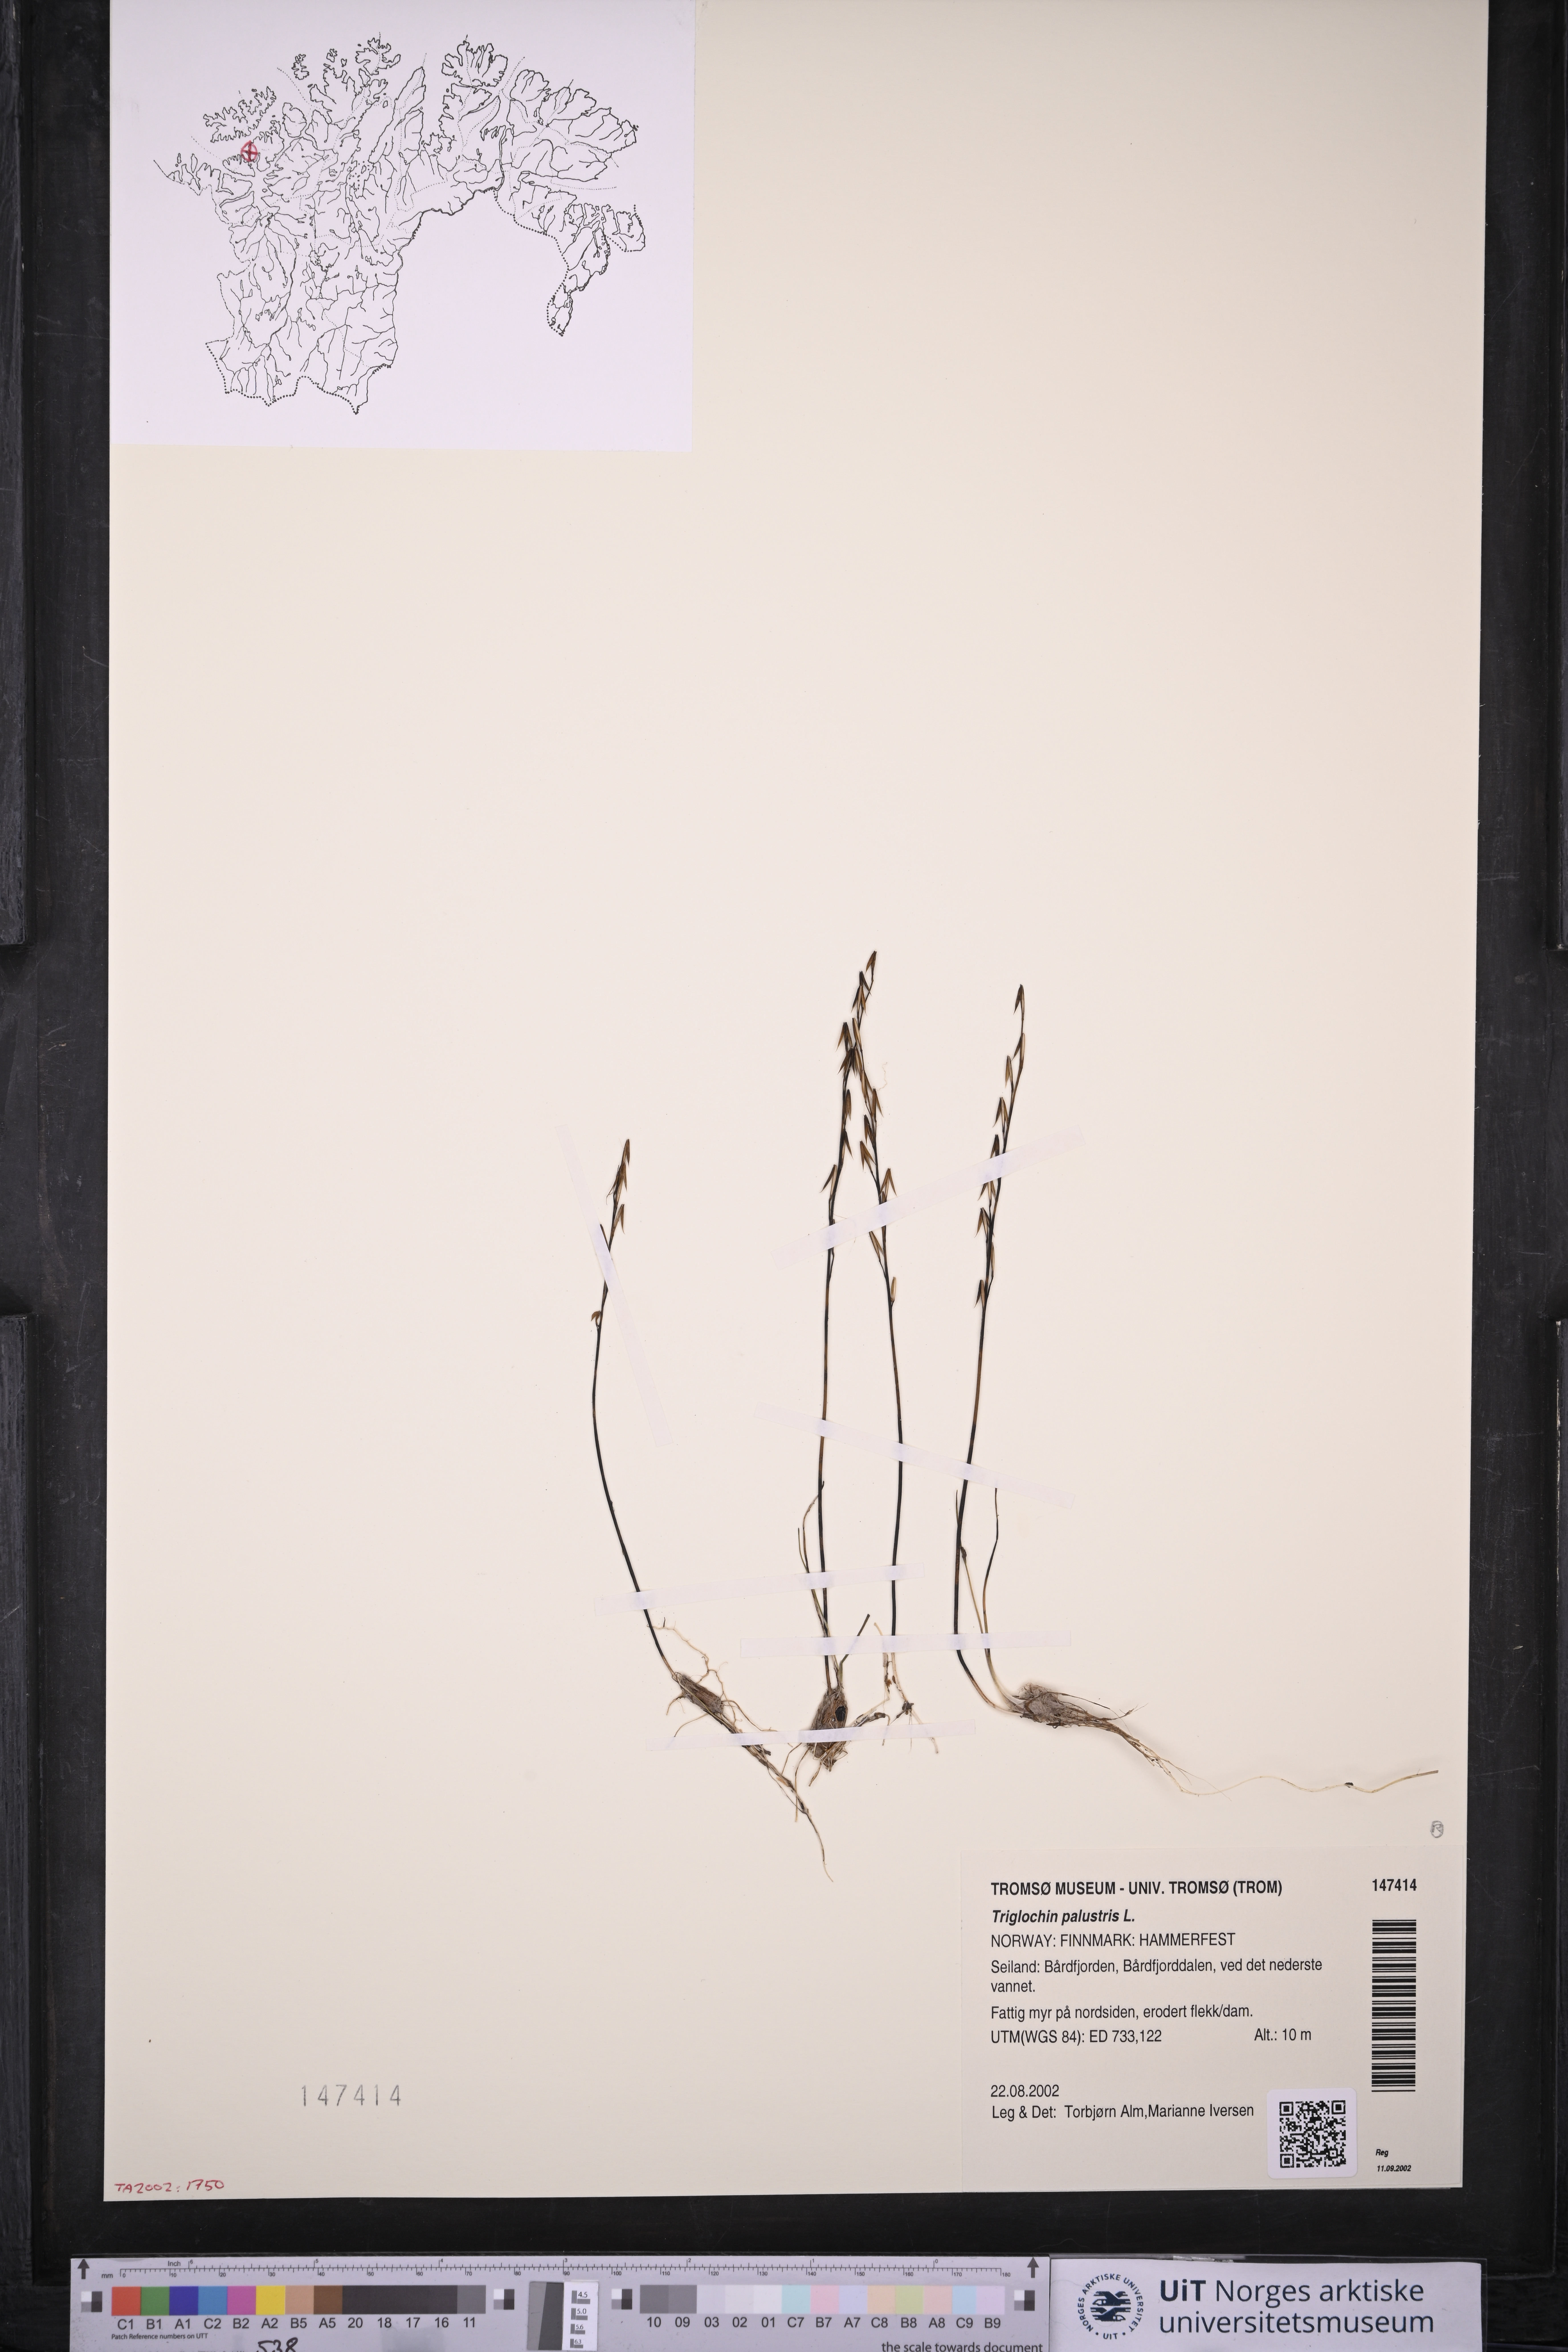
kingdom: Plantae
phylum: Tracheophyta
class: Liliopsida
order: Alismatales
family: Juncaginaceae
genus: Triglochin
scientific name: Triglochin palustris
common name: Marsh arrowgrass
